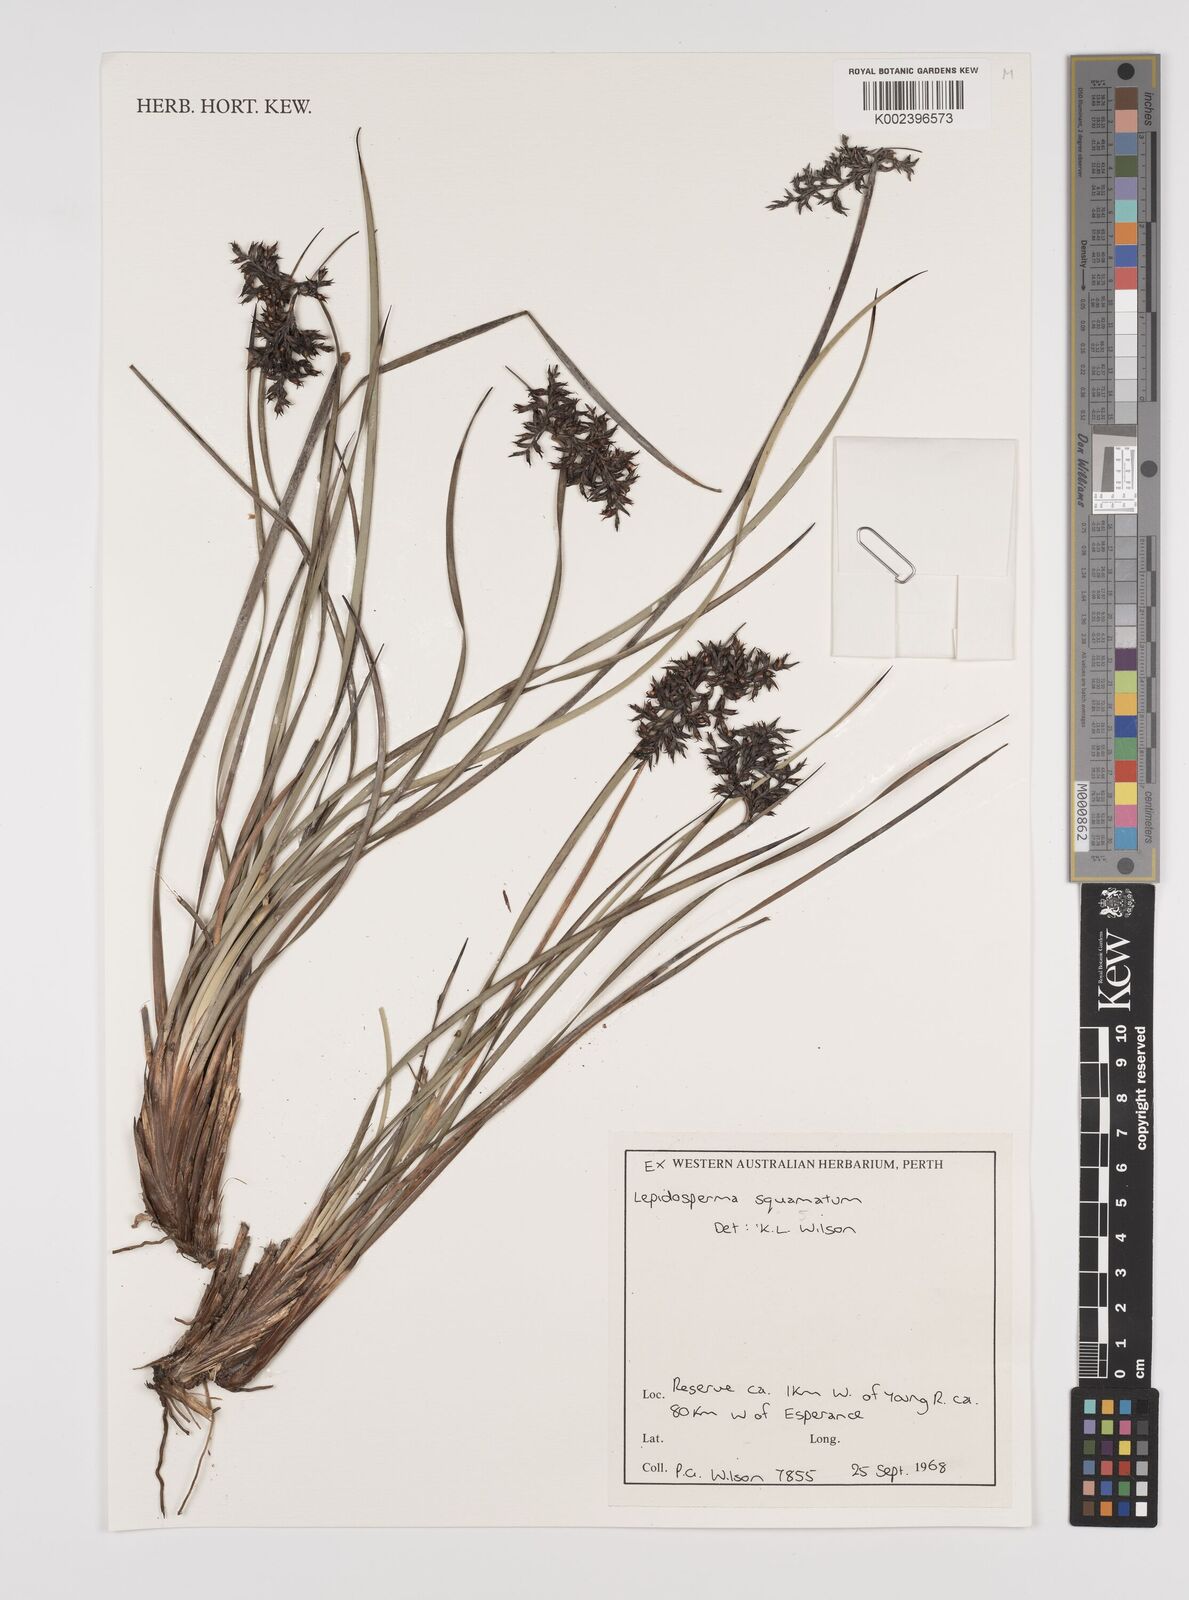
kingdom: Plantae
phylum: Tracheophyta
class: Liliopsida
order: Poales
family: Cyperaceae
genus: Lepidosperma
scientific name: Lepidosperma squamatum
